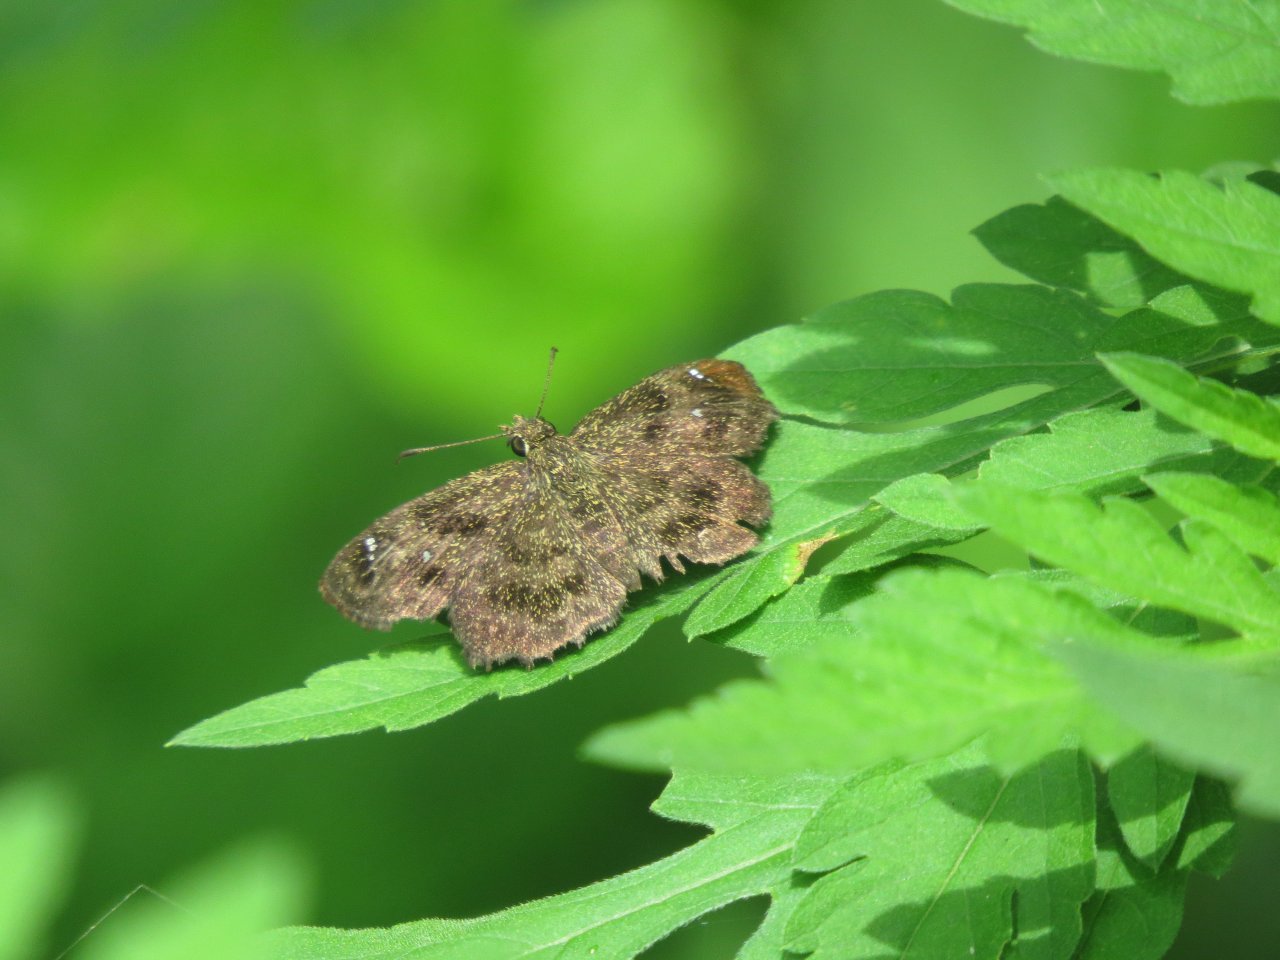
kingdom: Animalia
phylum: Arthropoda
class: Insecta
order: Lepidoptera
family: Hesperiidae
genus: Staphylus
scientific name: Staphylus mazans
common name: Hayhurst's Scallopwing
